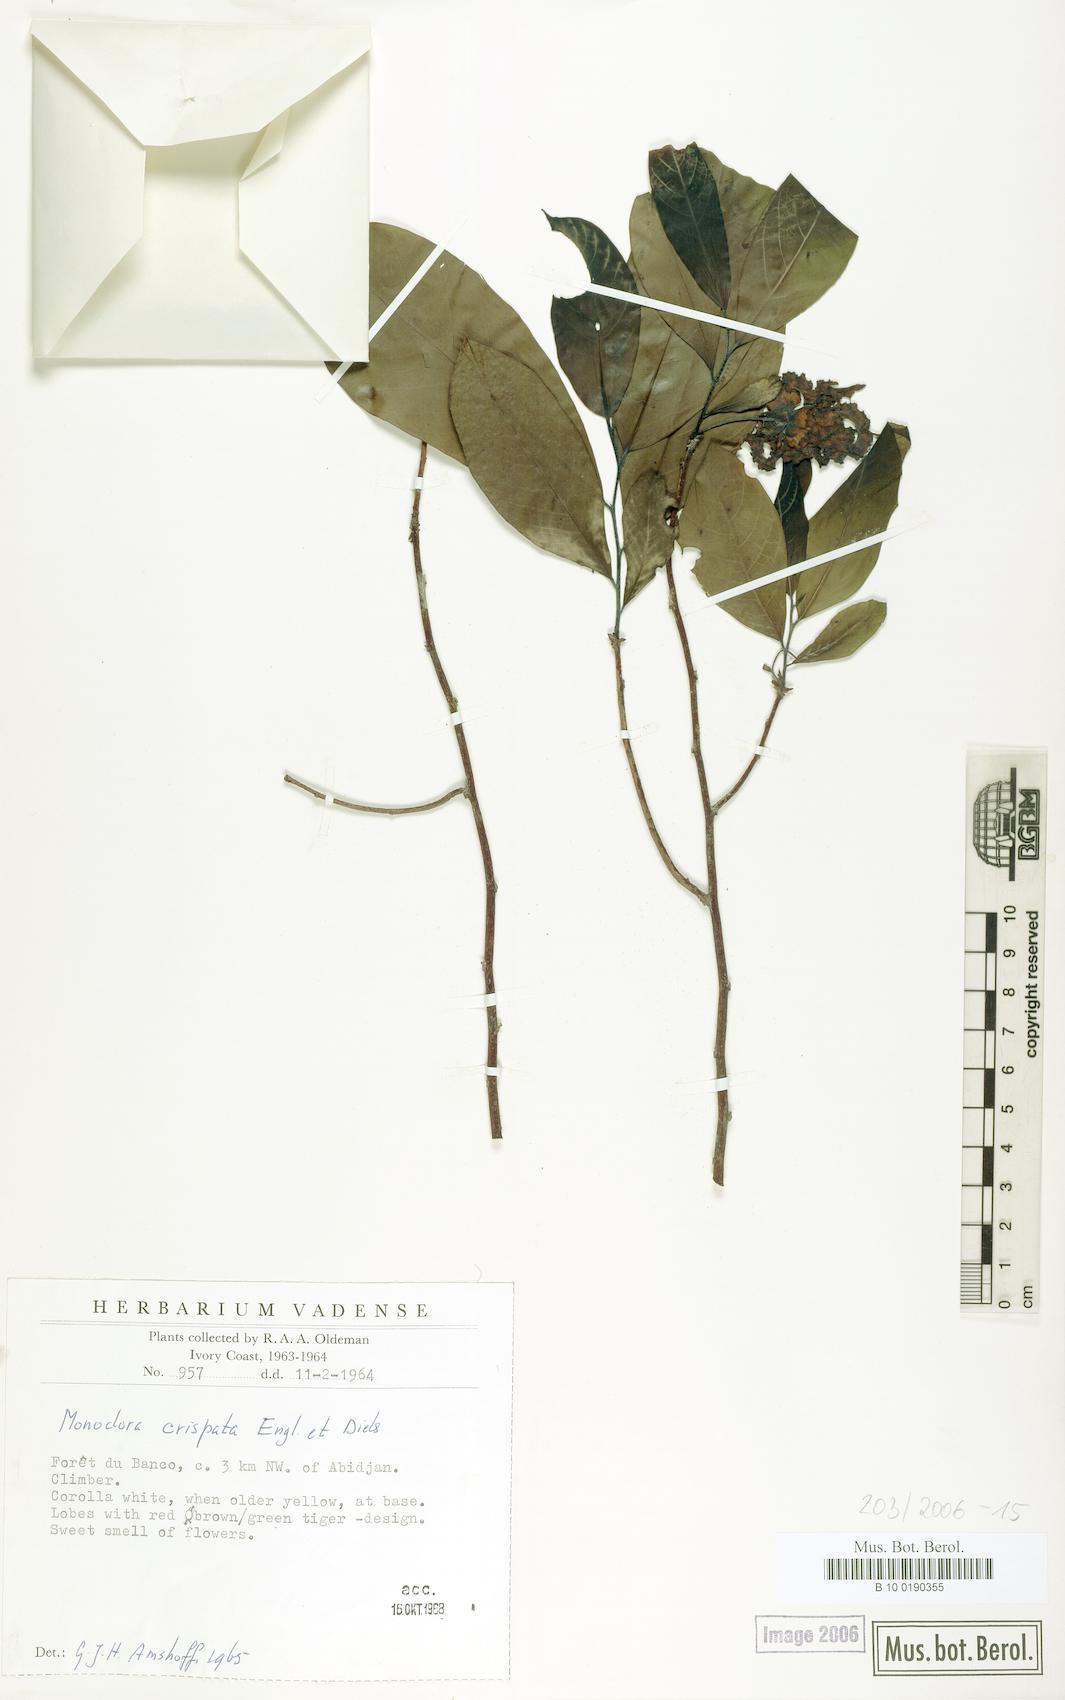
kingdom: Plantae
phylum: Tracheophyta
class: Magnoliopsida
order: Magnoliales
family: Annonaceae
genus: Monodora
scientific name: Monodora crispata
